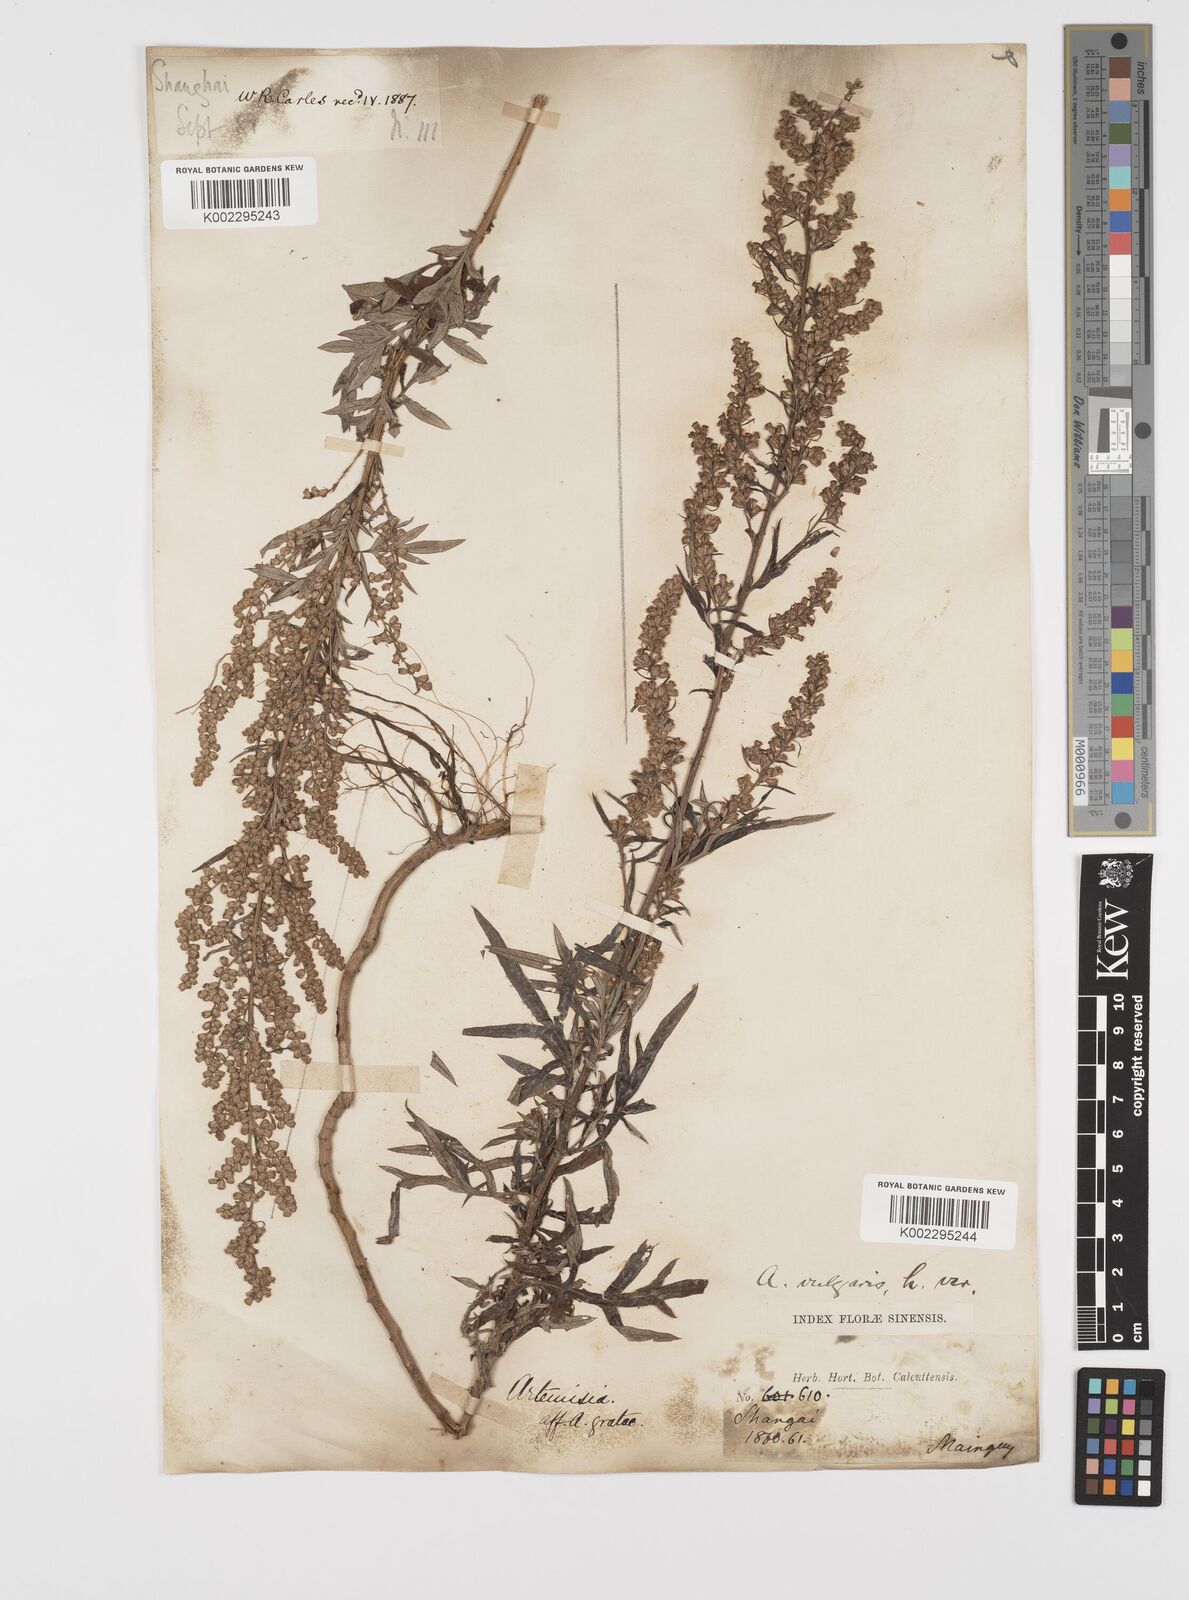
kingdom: Plantae
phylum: Tracheophyta
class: Magnoliopsida
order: Asterales
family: Asteraceae
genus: Artemisia
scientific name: Artemisia indica
